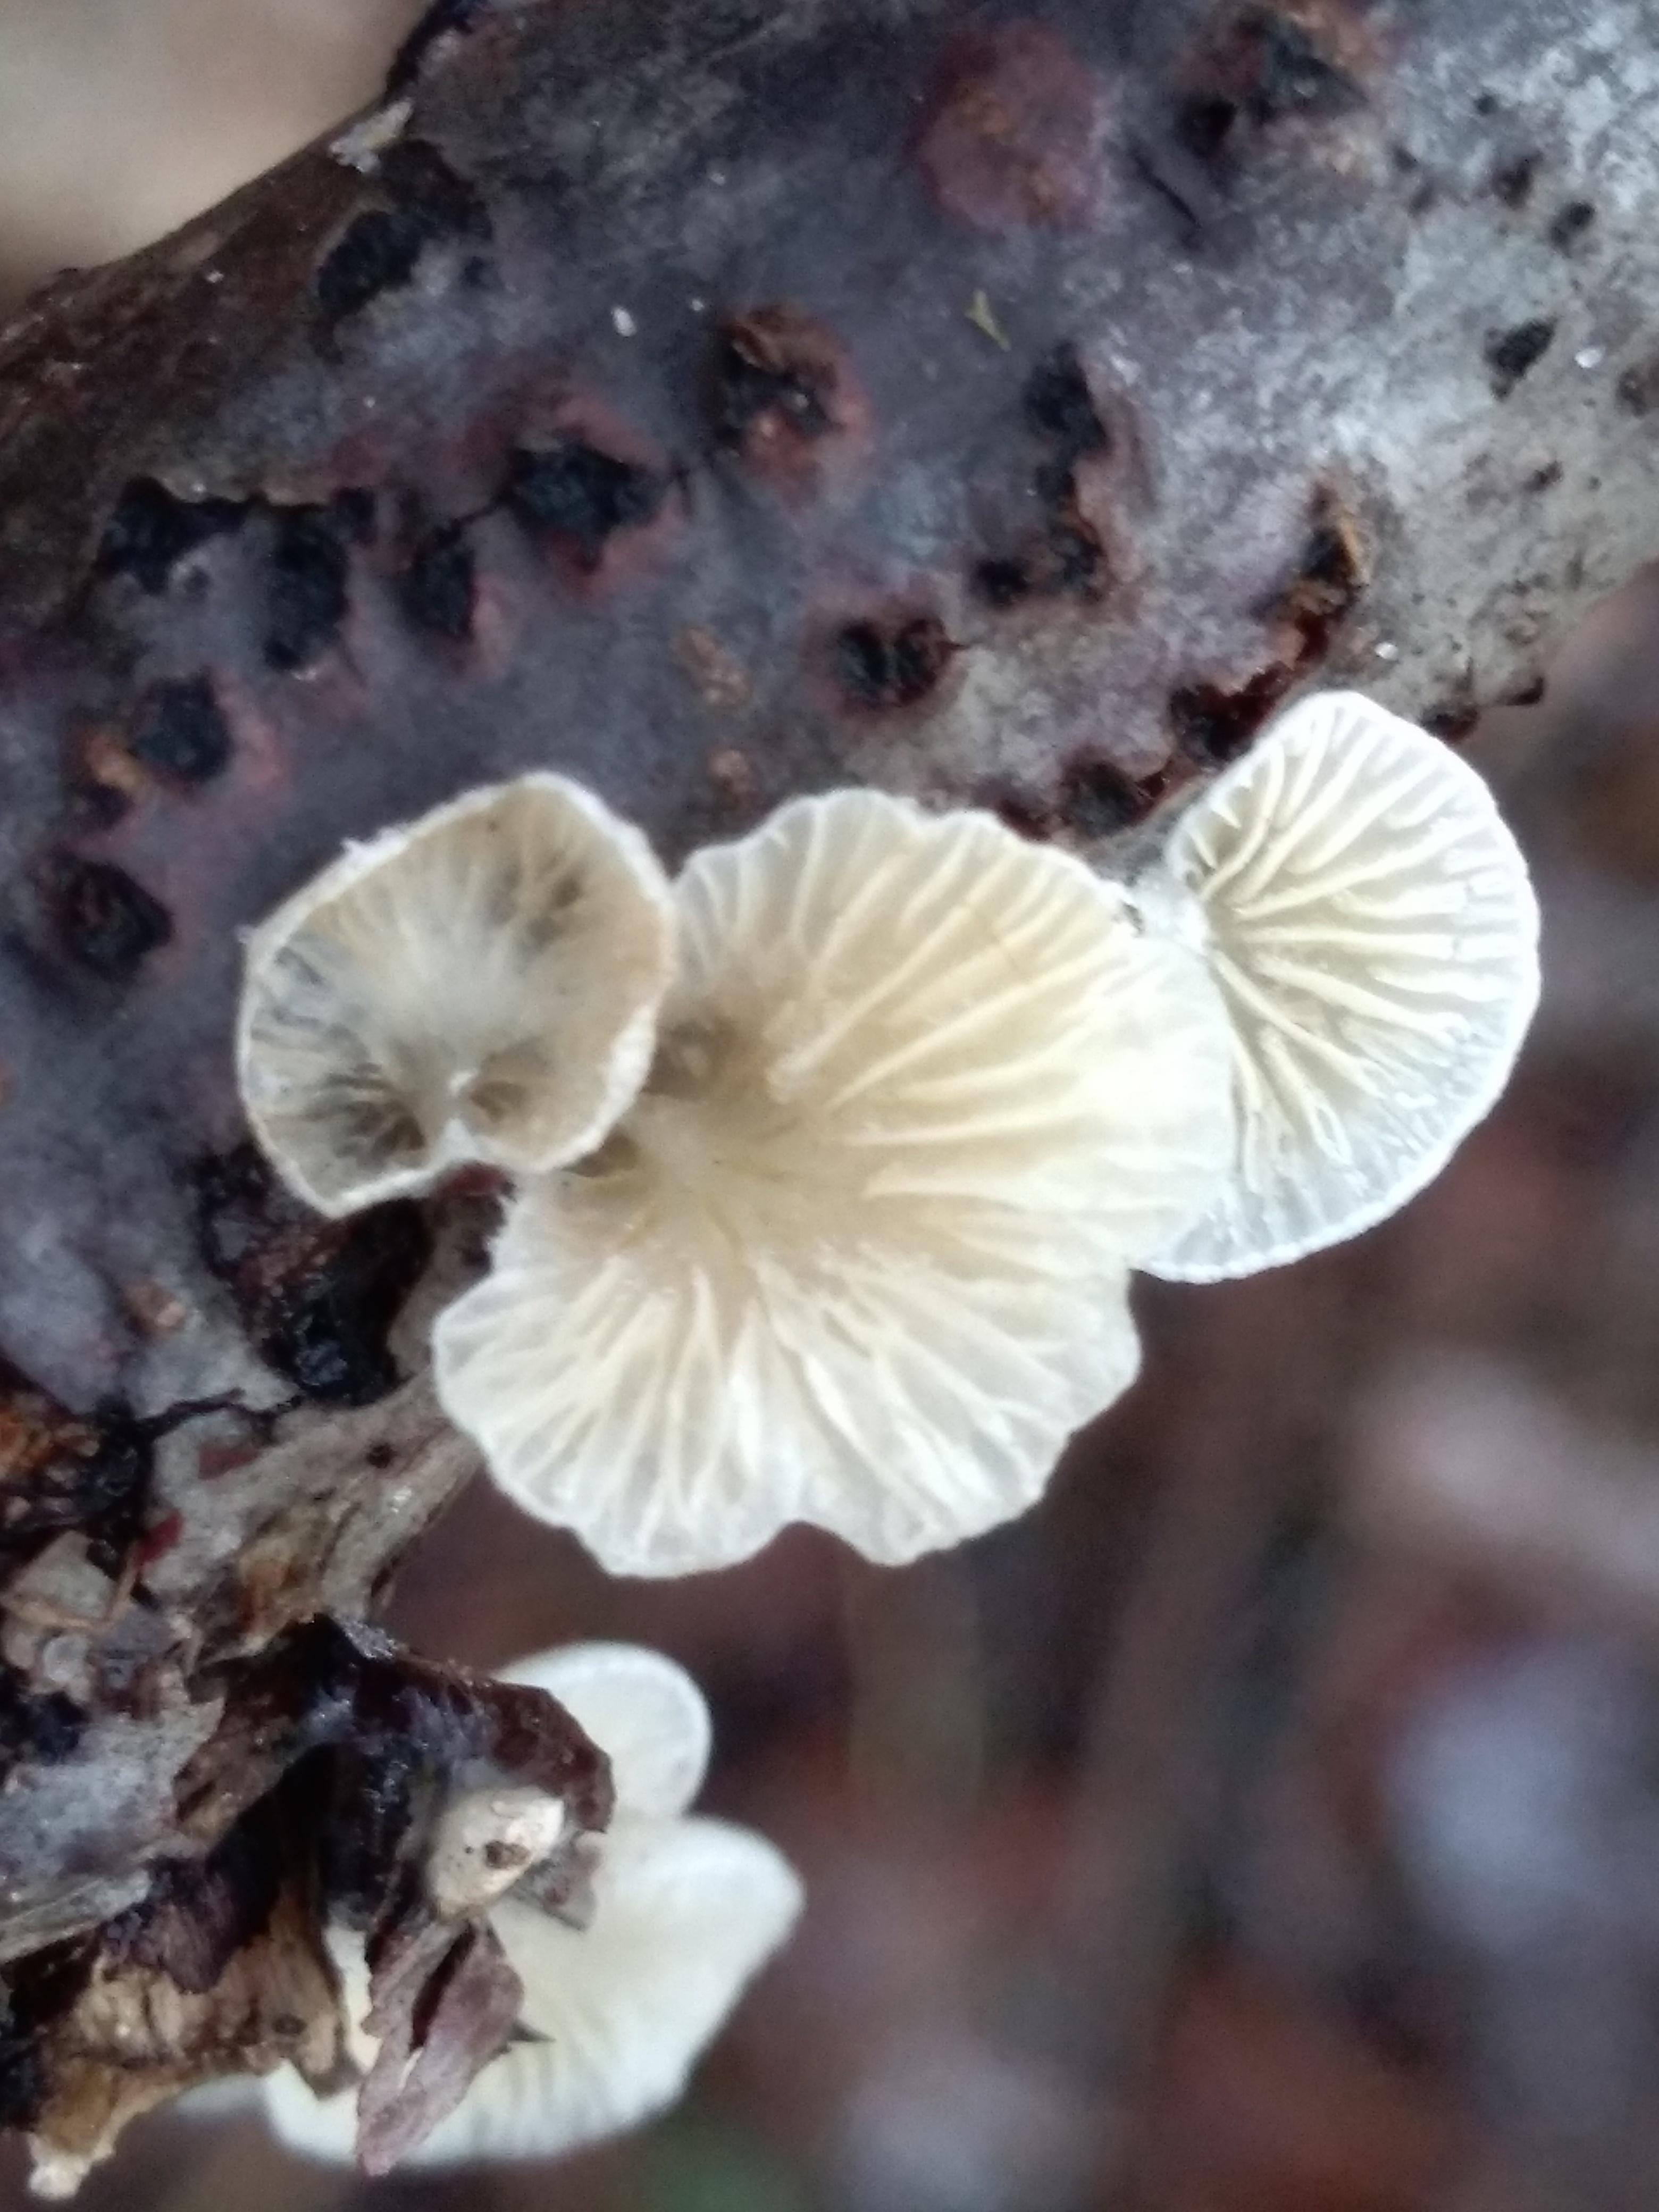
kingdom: Fungi
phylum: Basidiomycota
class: Agaricomycetes
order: Agaricales
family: Crepidotaceae
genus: Crepidotus
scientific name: Crepidotus
